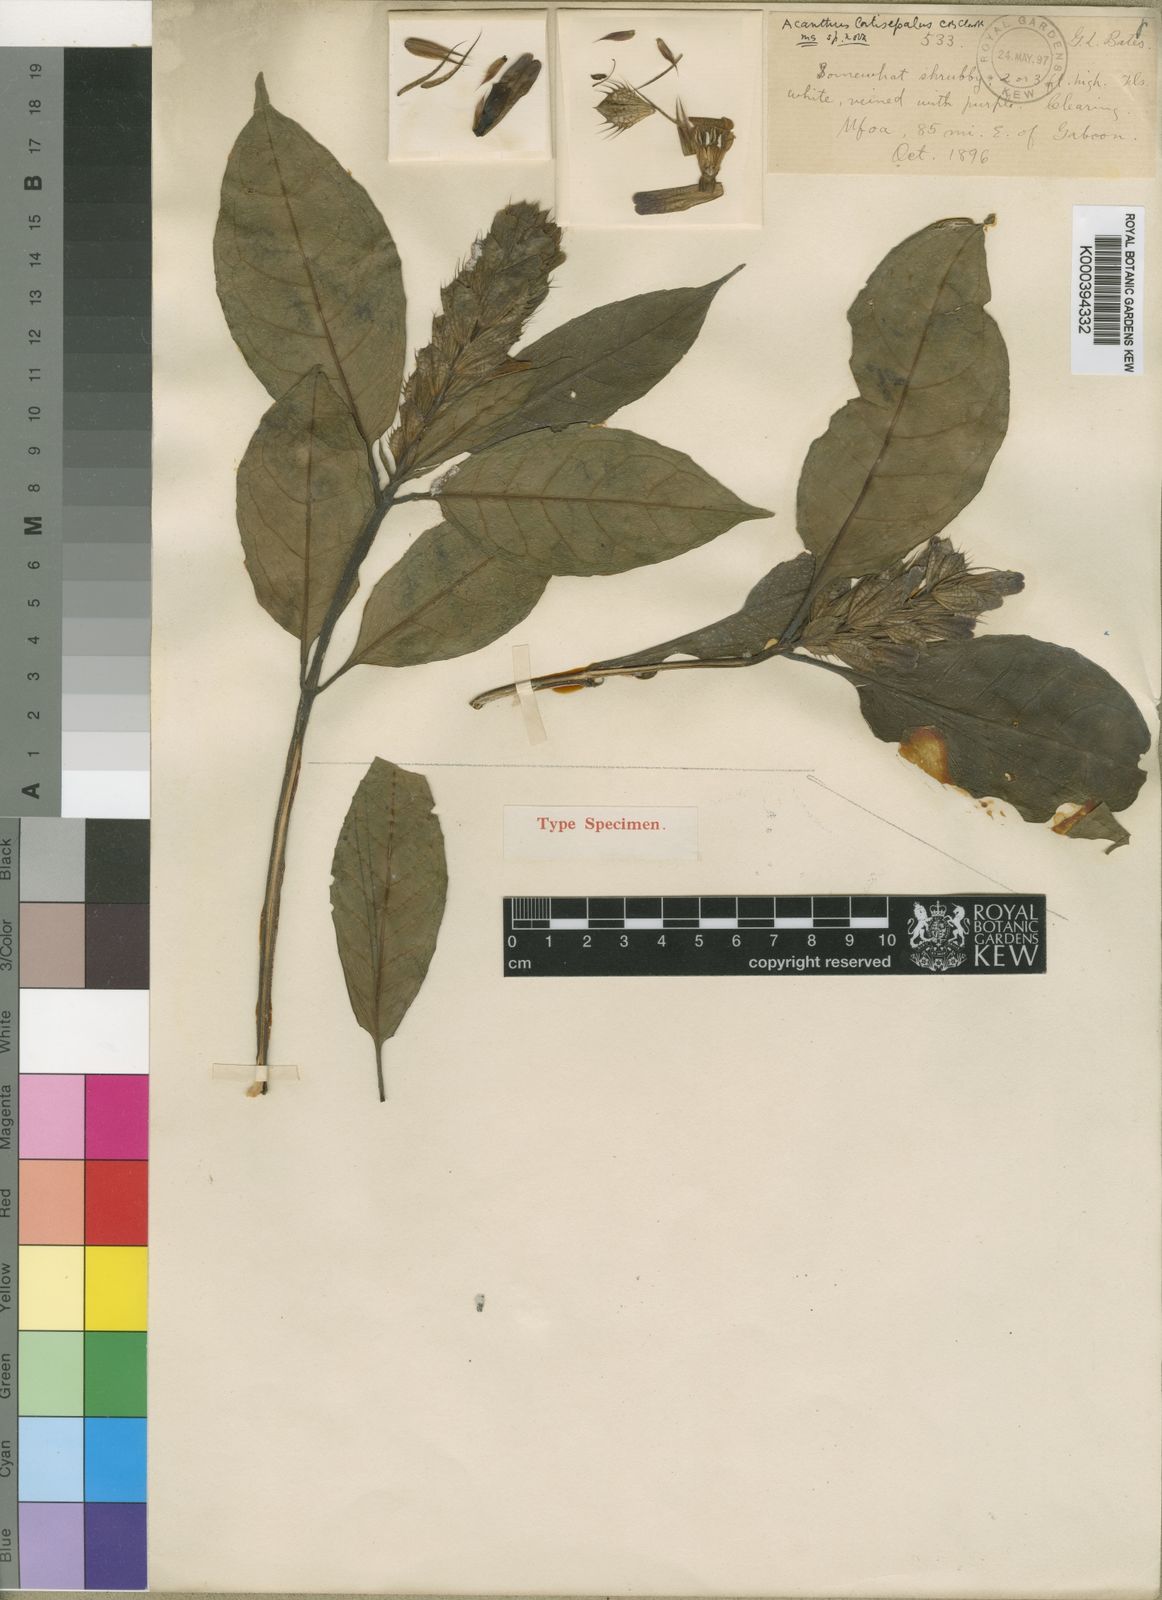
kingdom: Plantae
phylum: Tracheophyta
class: Magnoliopsida
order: Lamiales
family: Acanthaceae
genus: Acanthus
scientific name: Acanthus latisepalus
